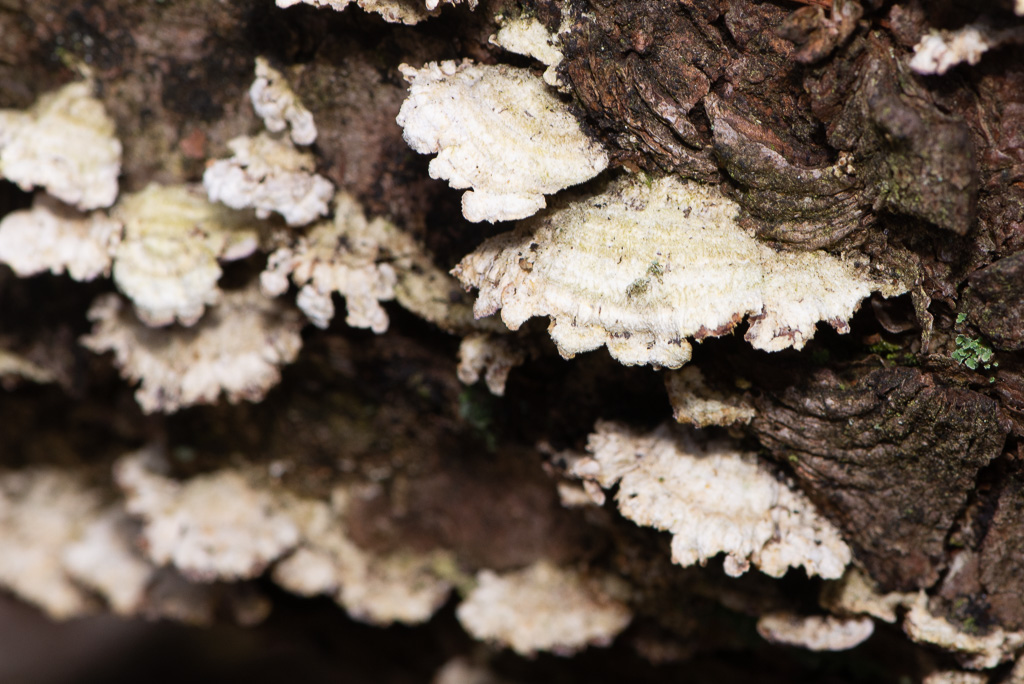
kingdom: Fungi
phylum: Basidiomycota
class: Agaricomycetes
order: Hymenochaetales
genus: Trichaptum
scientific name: Trichaptum abietinum
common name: almindelig violporesvamp
